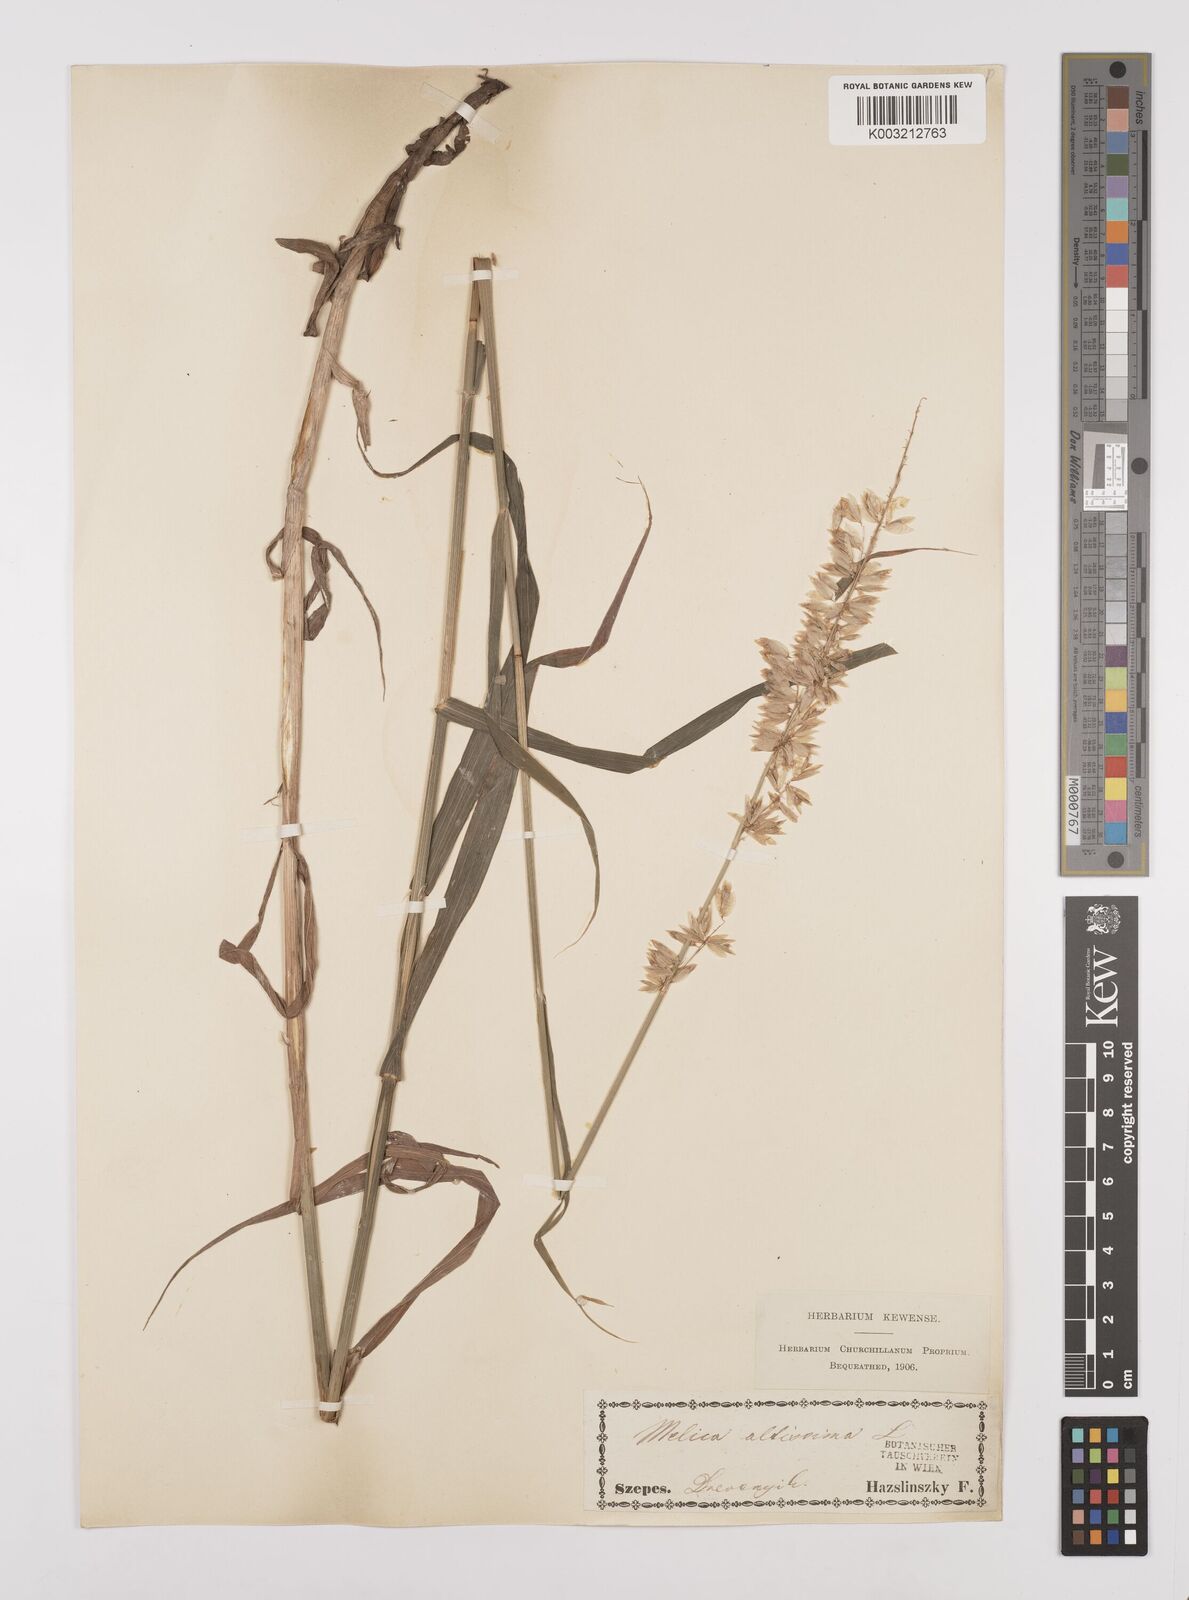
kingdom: Plantae
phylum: Tracheophyta
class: Liliopsida
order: Poales
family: Poaceae
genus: Melica
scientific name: Melica altissima
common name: Siberian melicgrass
